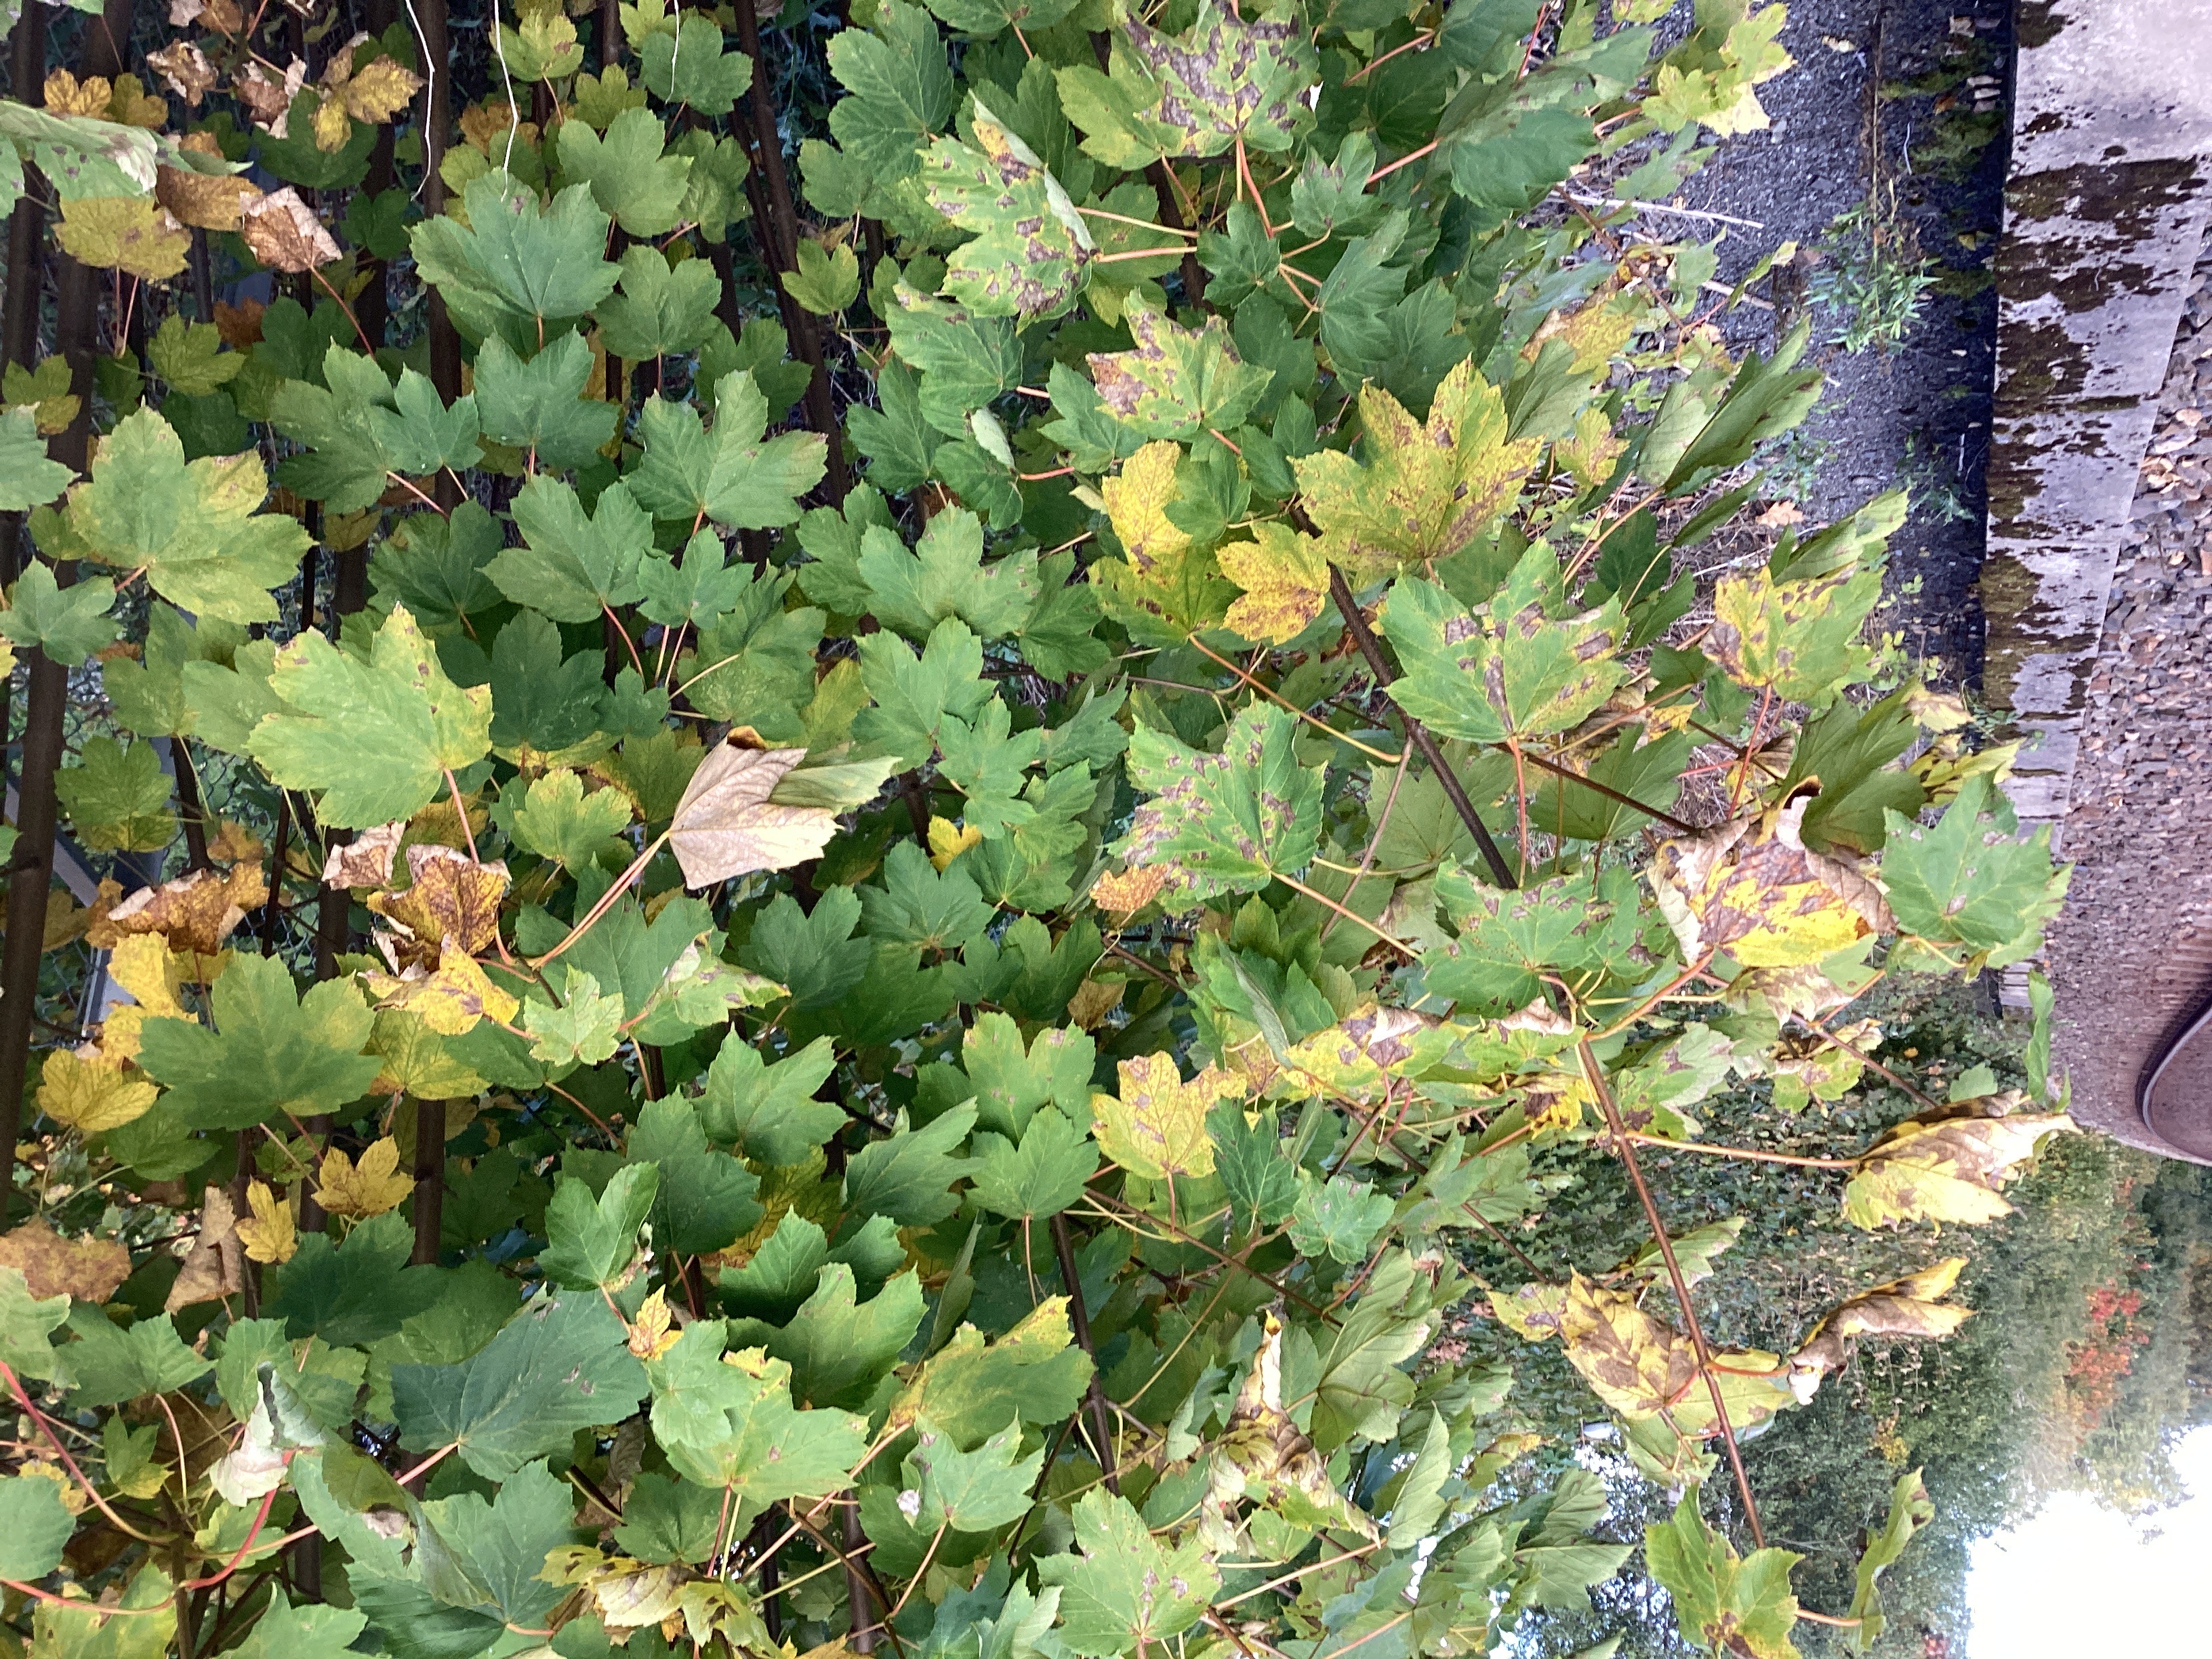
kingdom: Plantae
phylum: Tracheophyta
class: Magnoliopsida
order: Sapindales
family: Sapindaceae
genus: Acer
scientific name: Acer pseudoplatanus
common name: platanlønn
